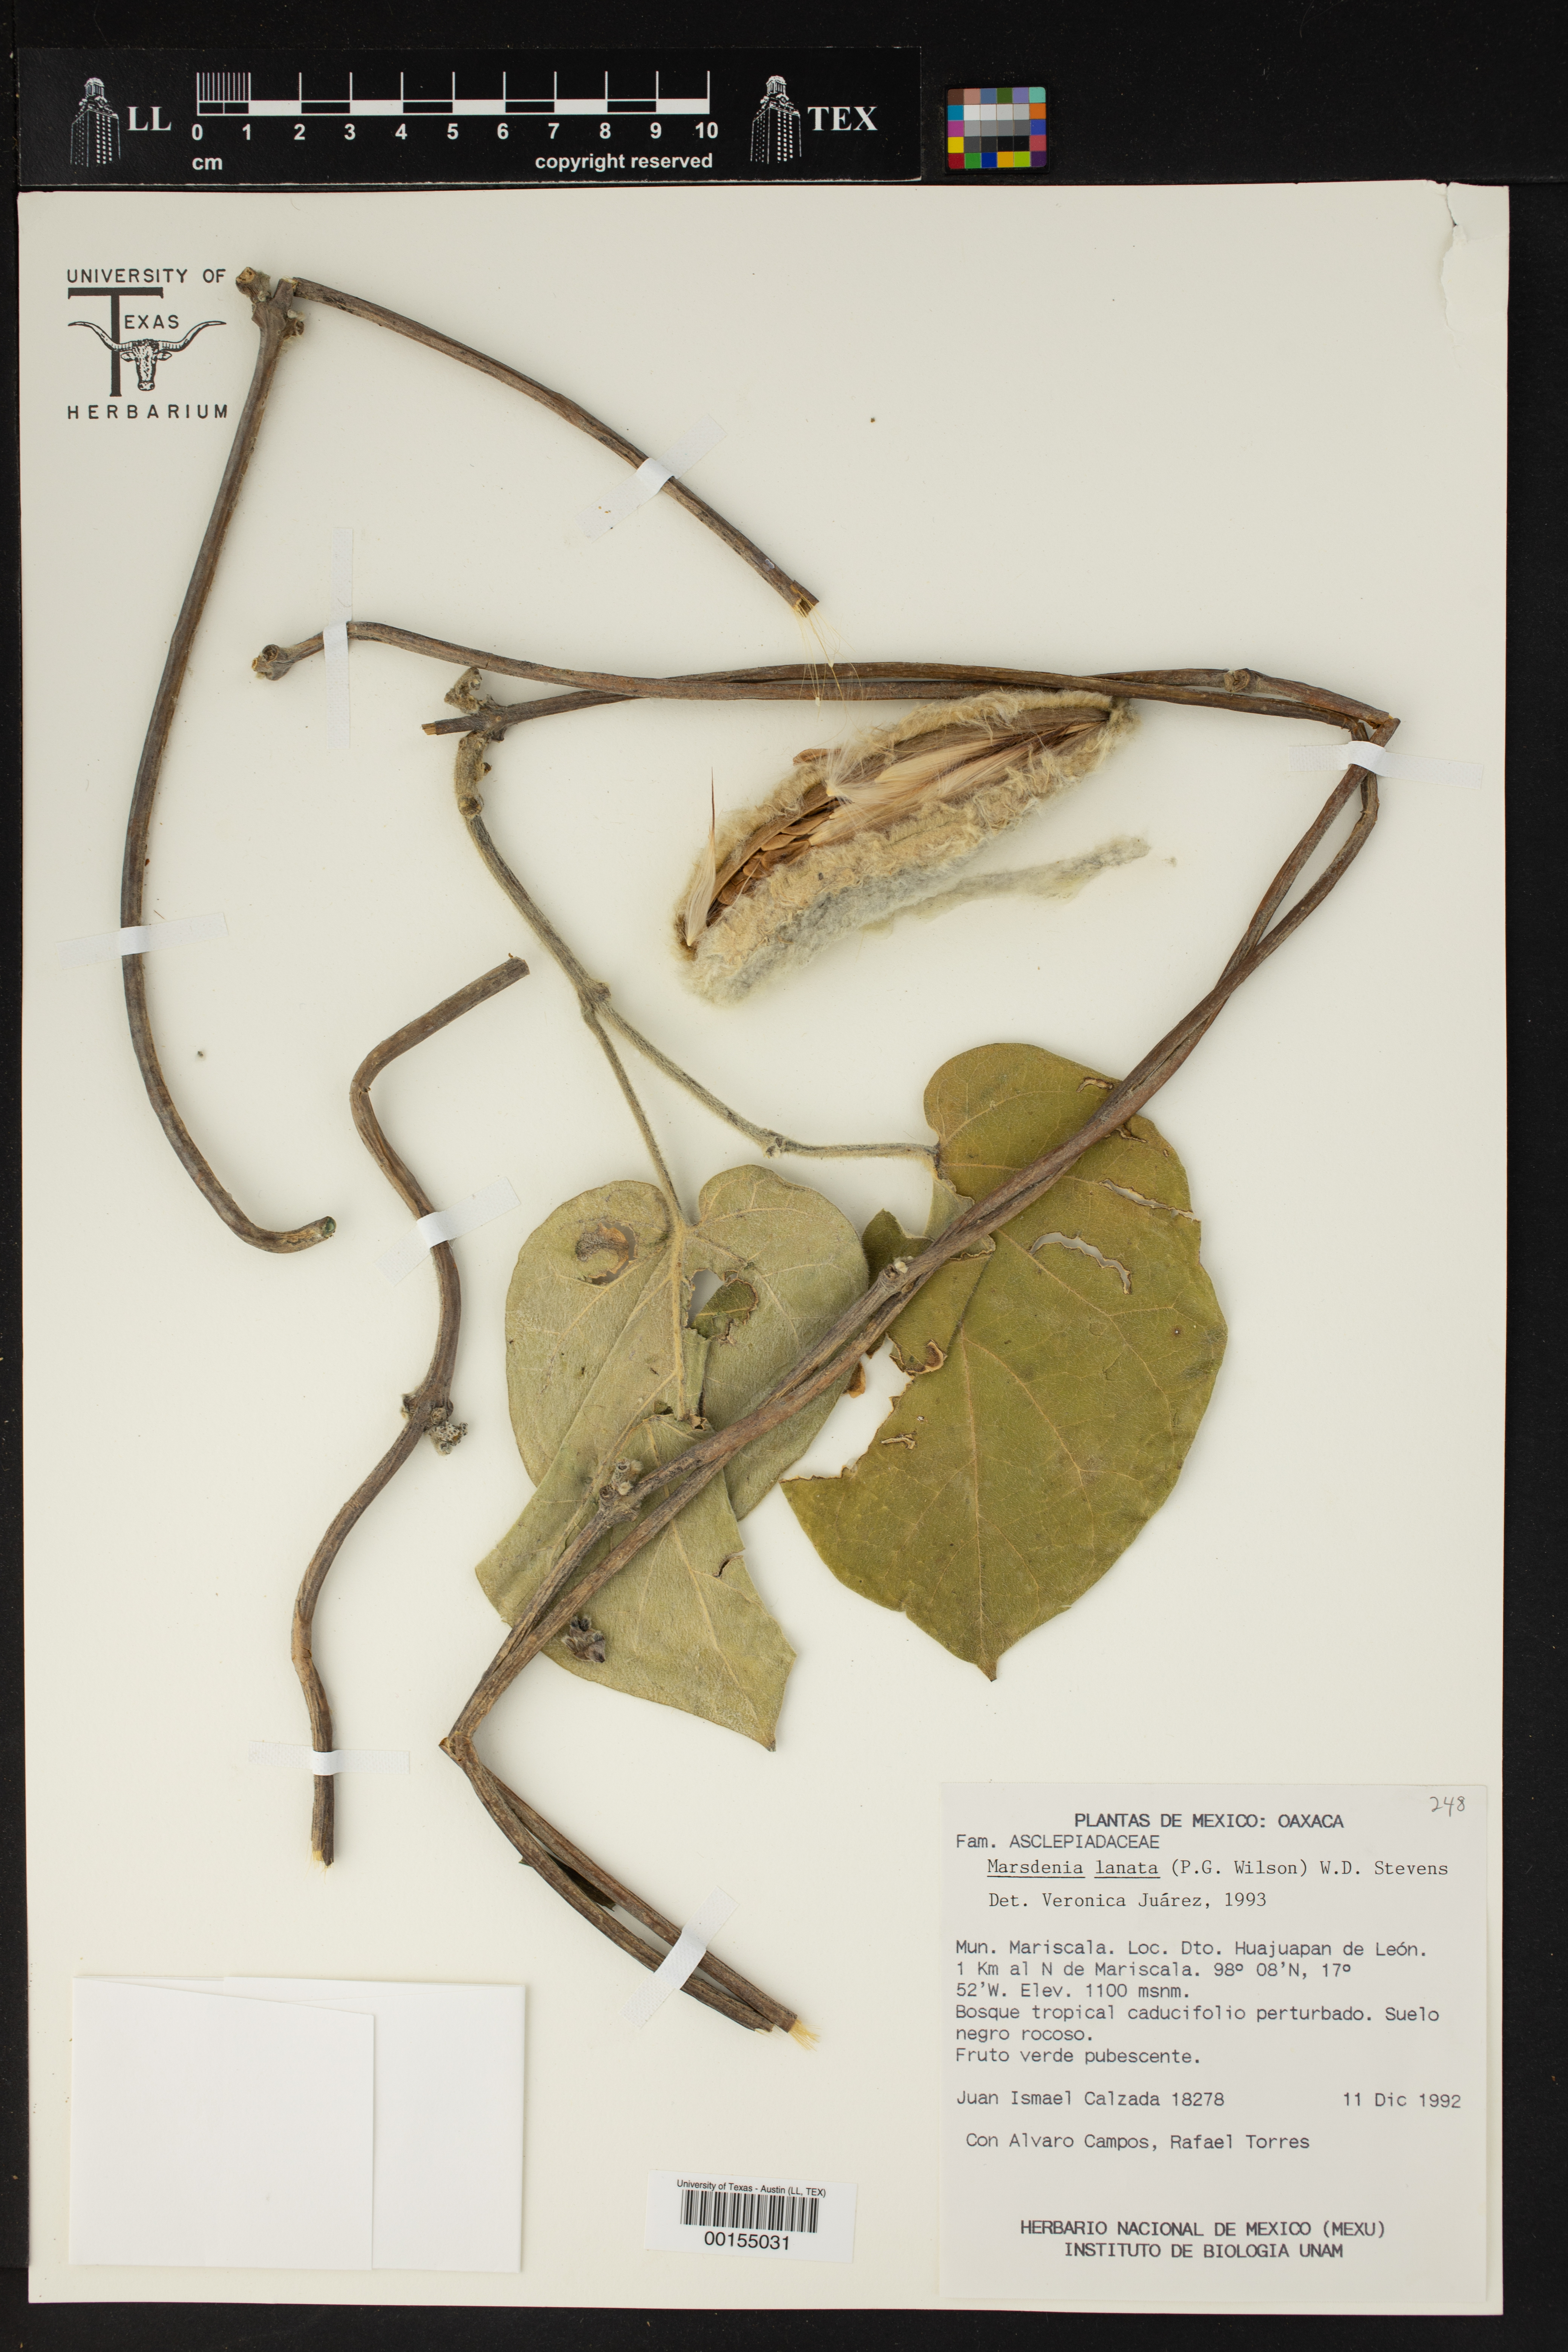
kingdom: Plantae
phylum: Tracheophyta
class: Magnoliopsida
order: Gentianales
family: Apocynaceae
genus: Ruehssia
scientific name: Ruehssia lanata
